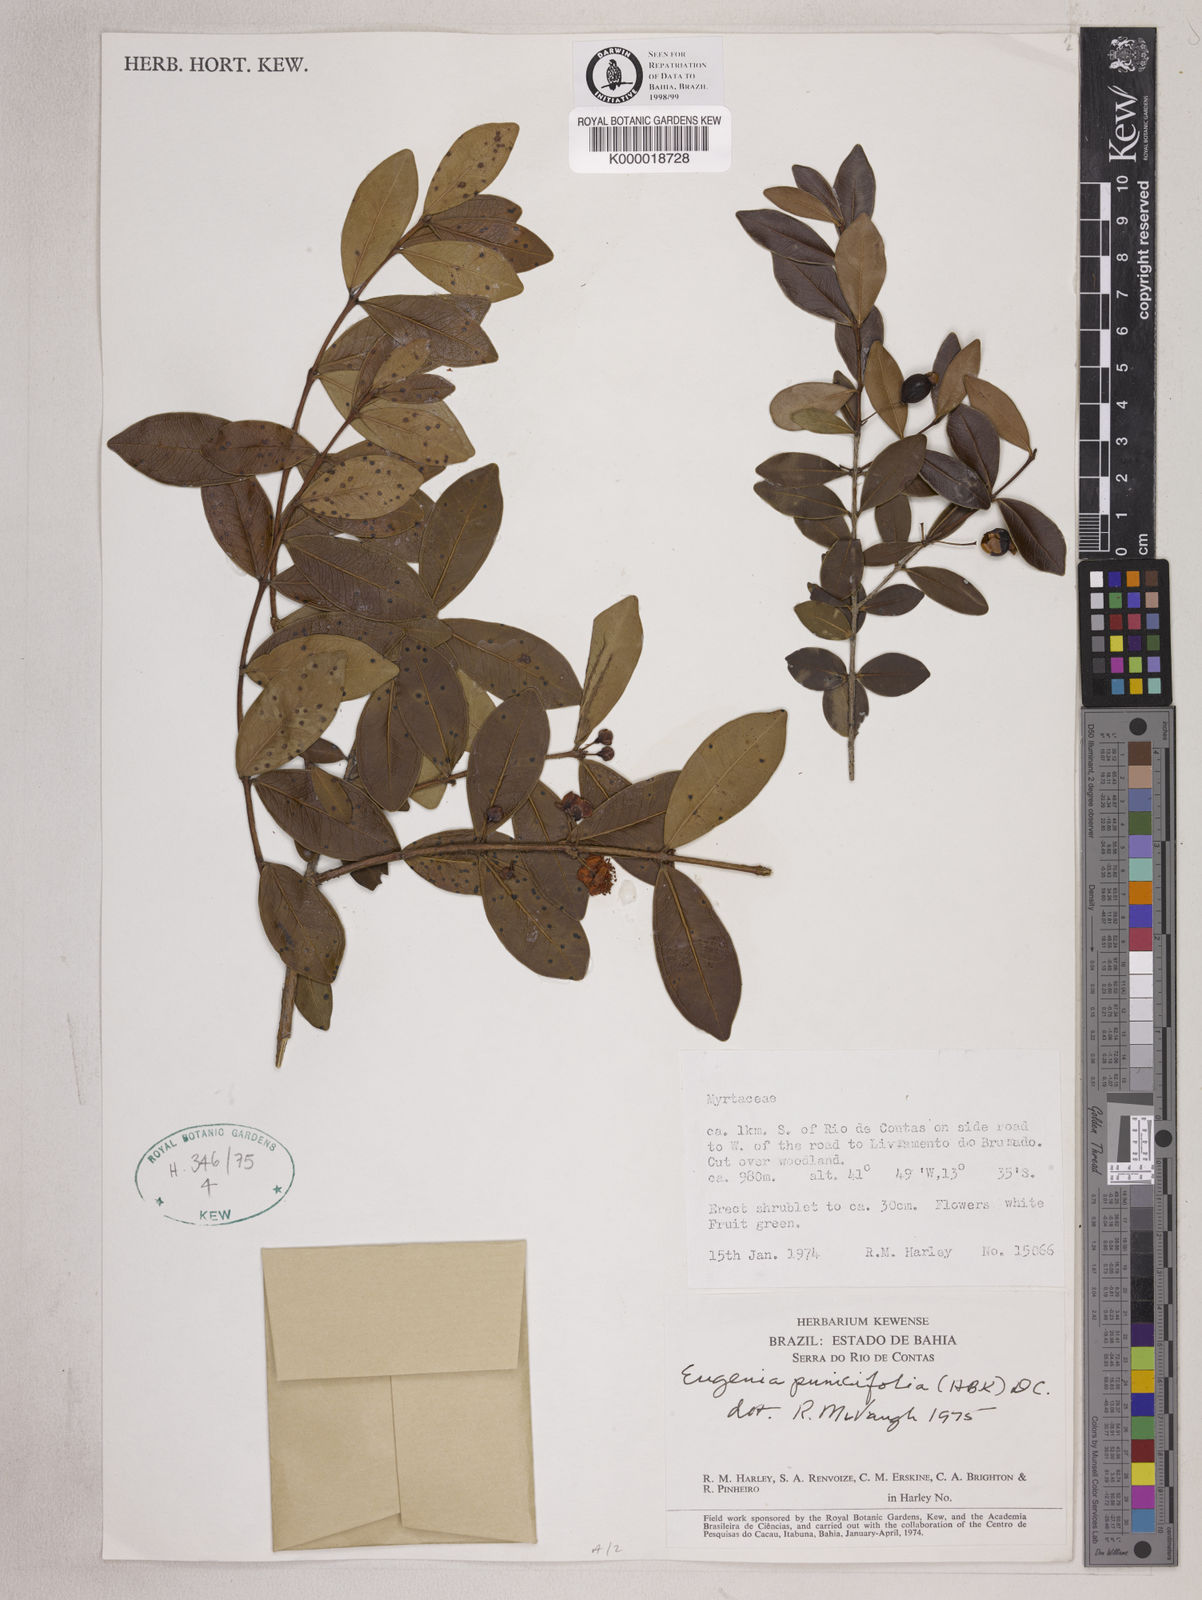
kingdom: Plantae
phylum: Tracheophyta
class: Magnoliopsida
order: Myrtales
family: Myrtaceae
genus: Eugenia
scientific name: Eugenia punicifolia
